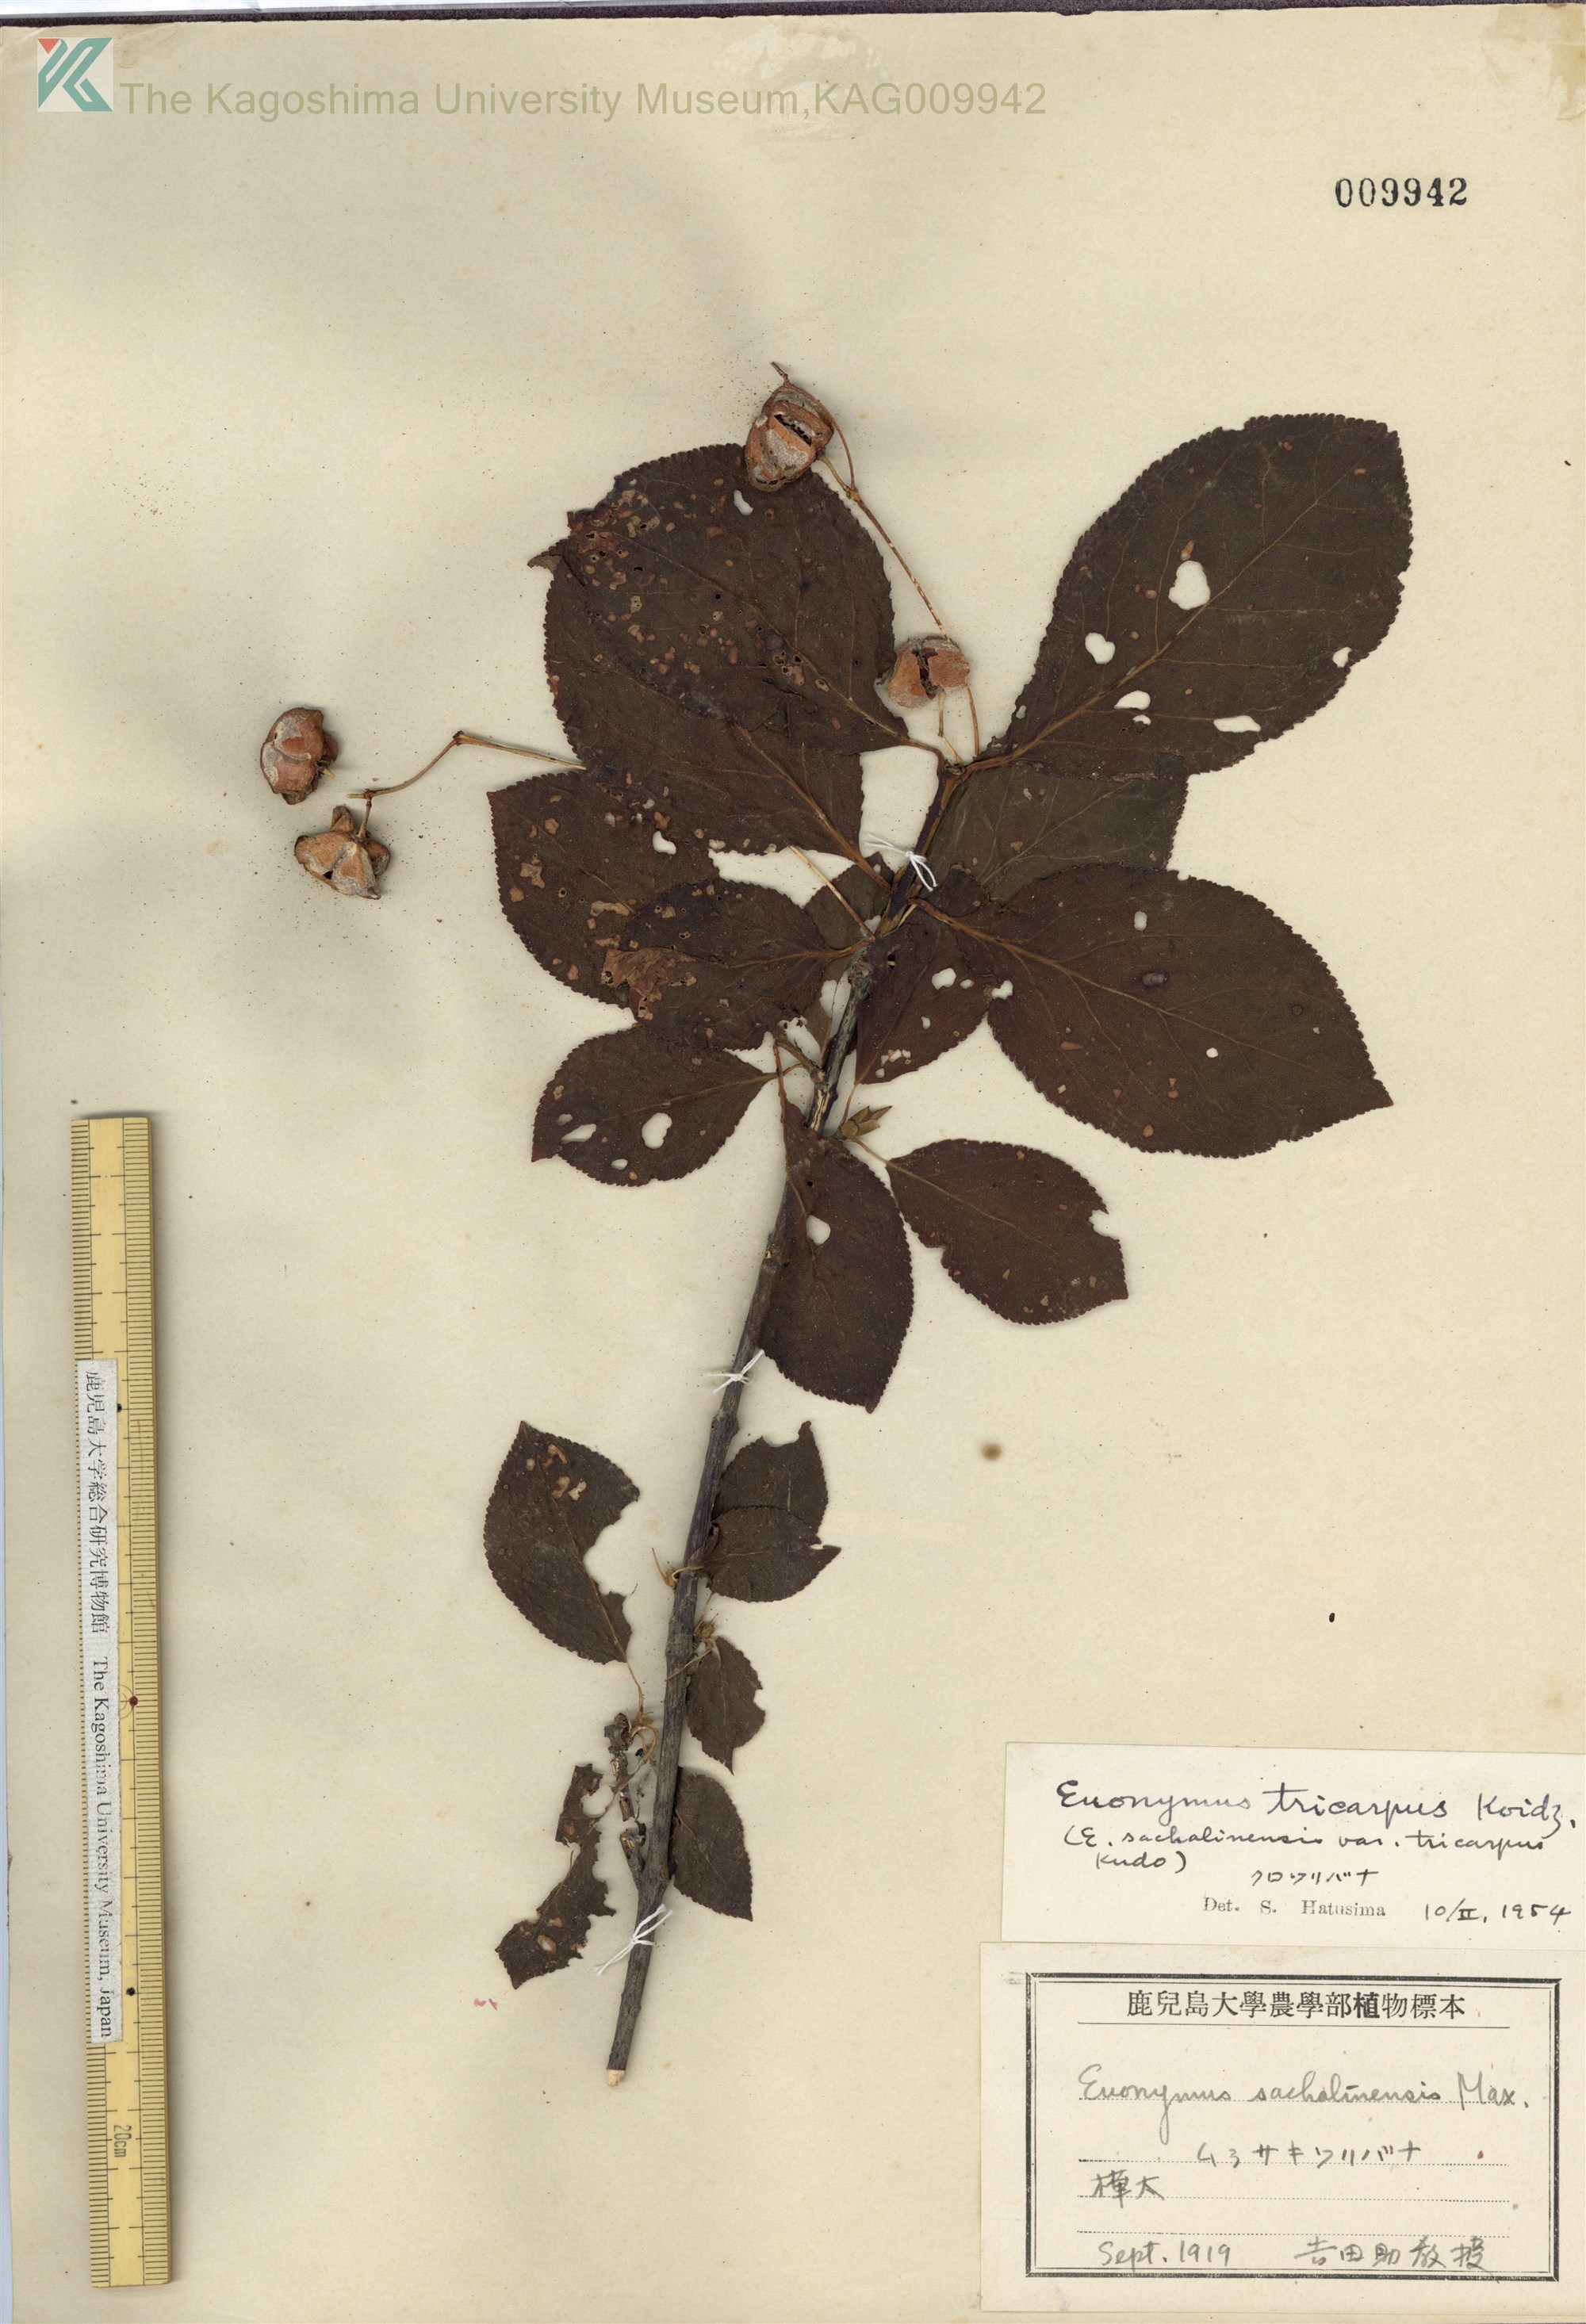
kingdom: Plantae
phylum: Tracheophyta
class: Magnoliopsida
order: Celastrales
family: Celastraceae
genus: Euonymus
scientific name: Euonymus sachalinensis
